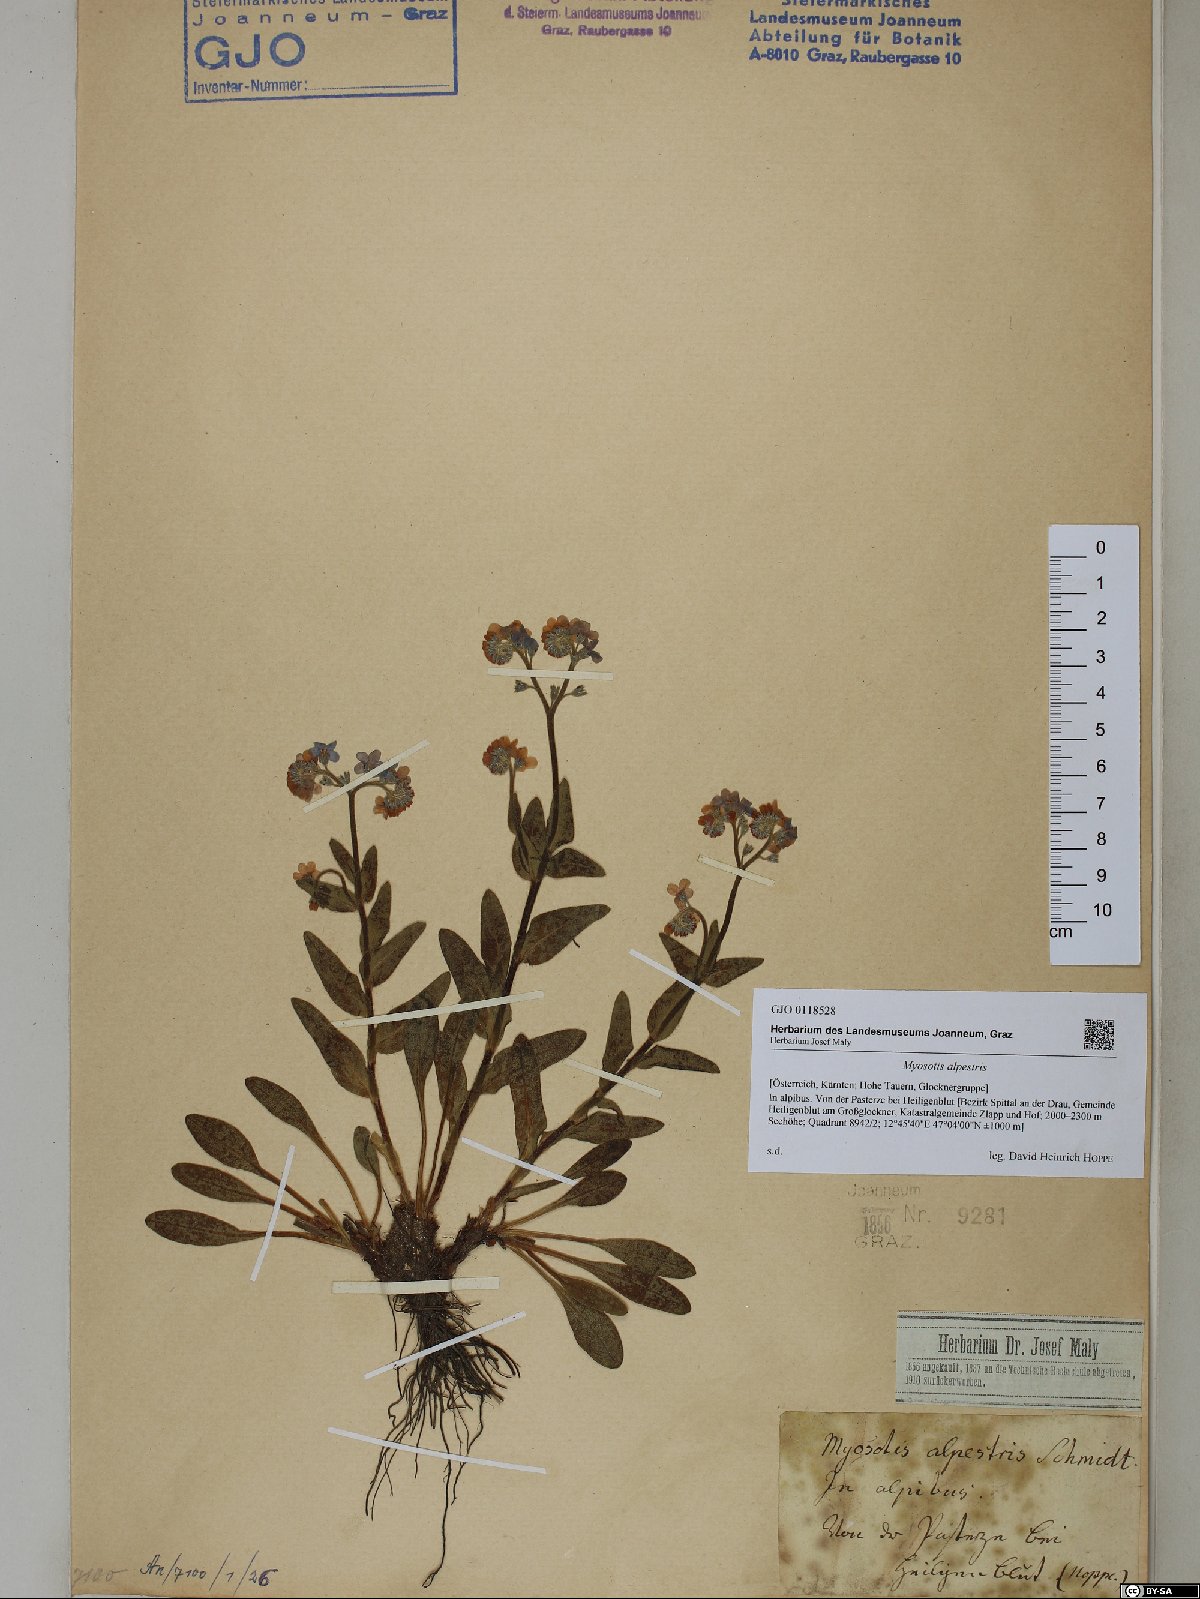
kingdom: Plantae
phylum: Tracheophyta
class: Magnoliopsida
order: Boraginales
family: Boraginaceae
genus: Myosotis
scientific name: Myosotis alpestris
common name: Alpine forget-me-not
